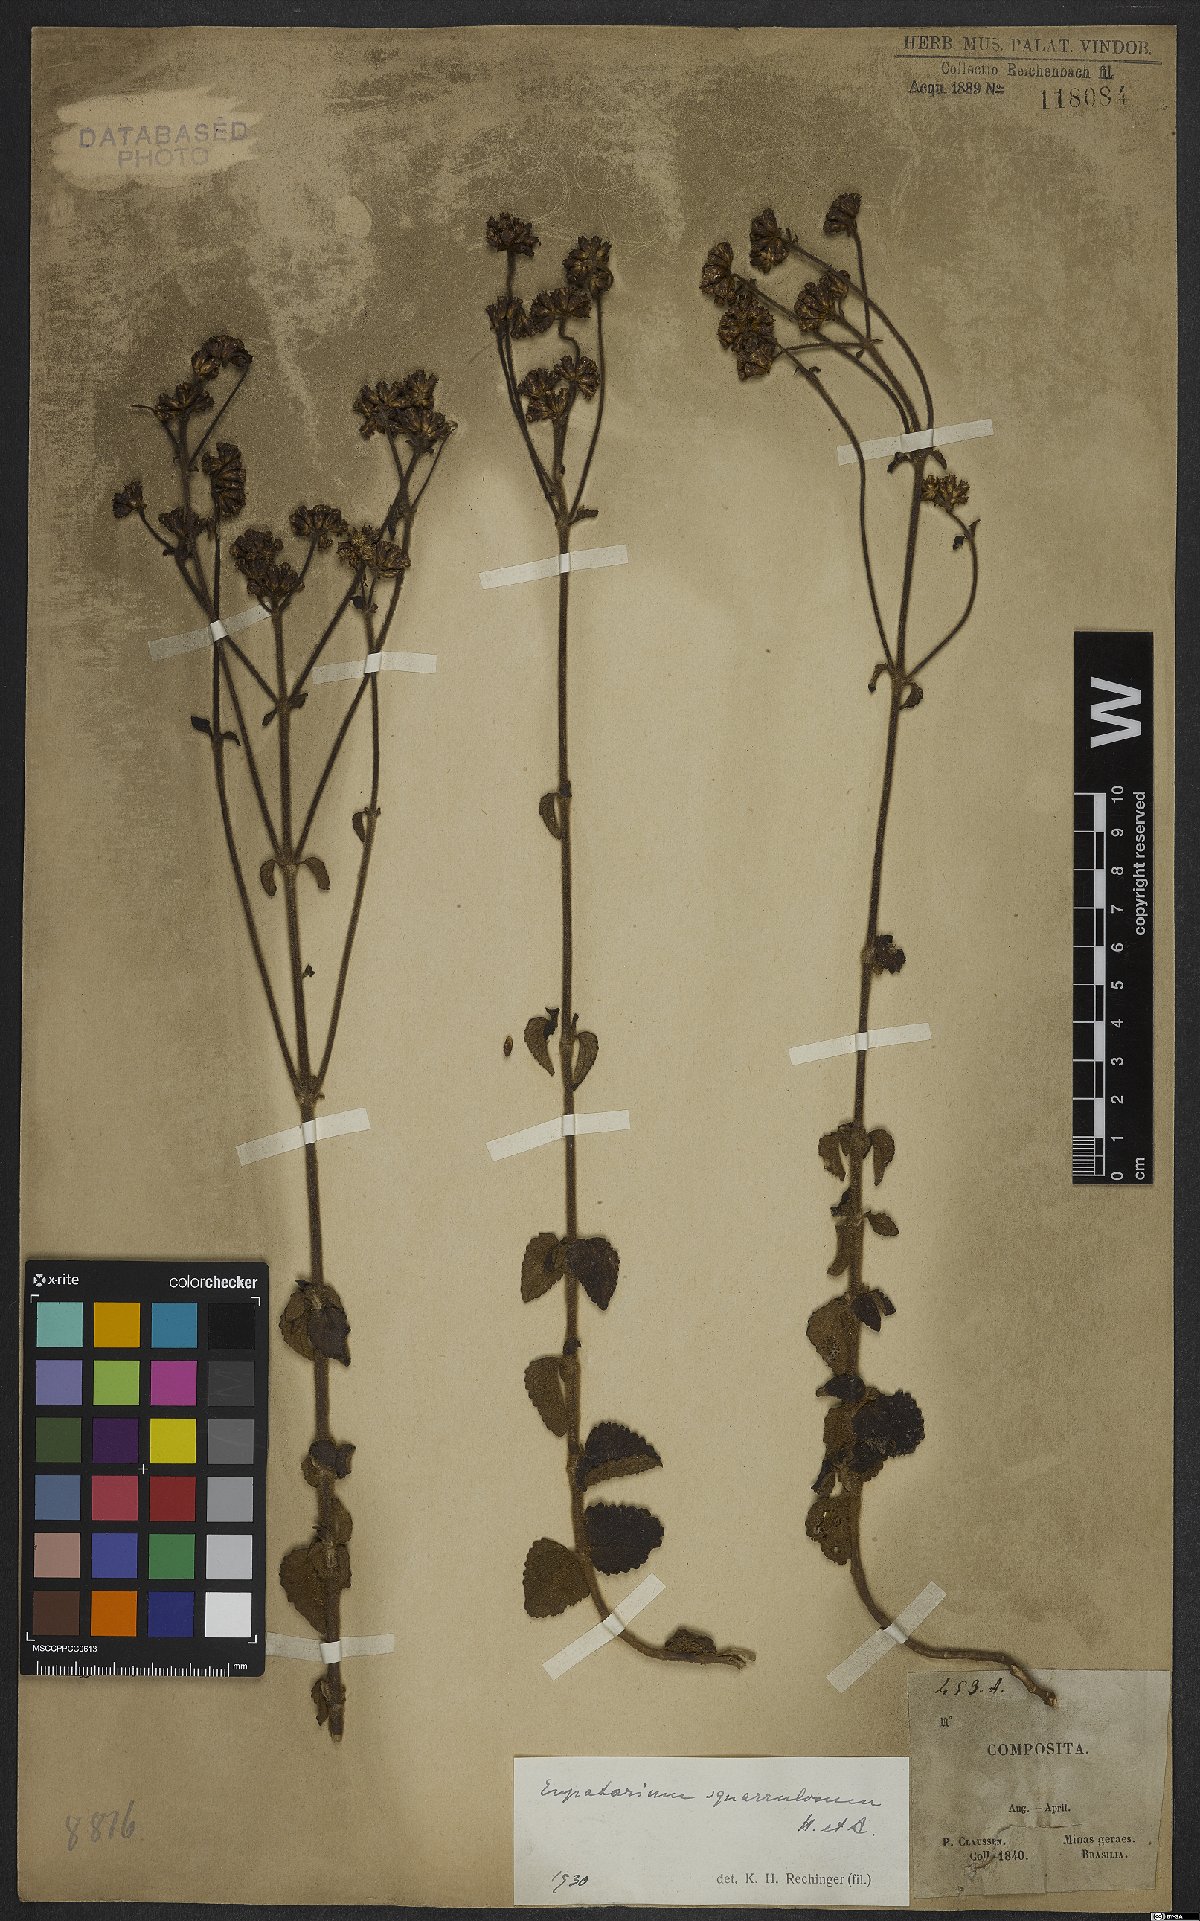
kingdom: Plantae
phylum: Tracheophyta
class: Magnoliopsida
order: Asterales
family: Asteraceae
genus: Chromolaena
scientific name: Chromolaena squarrulosa
